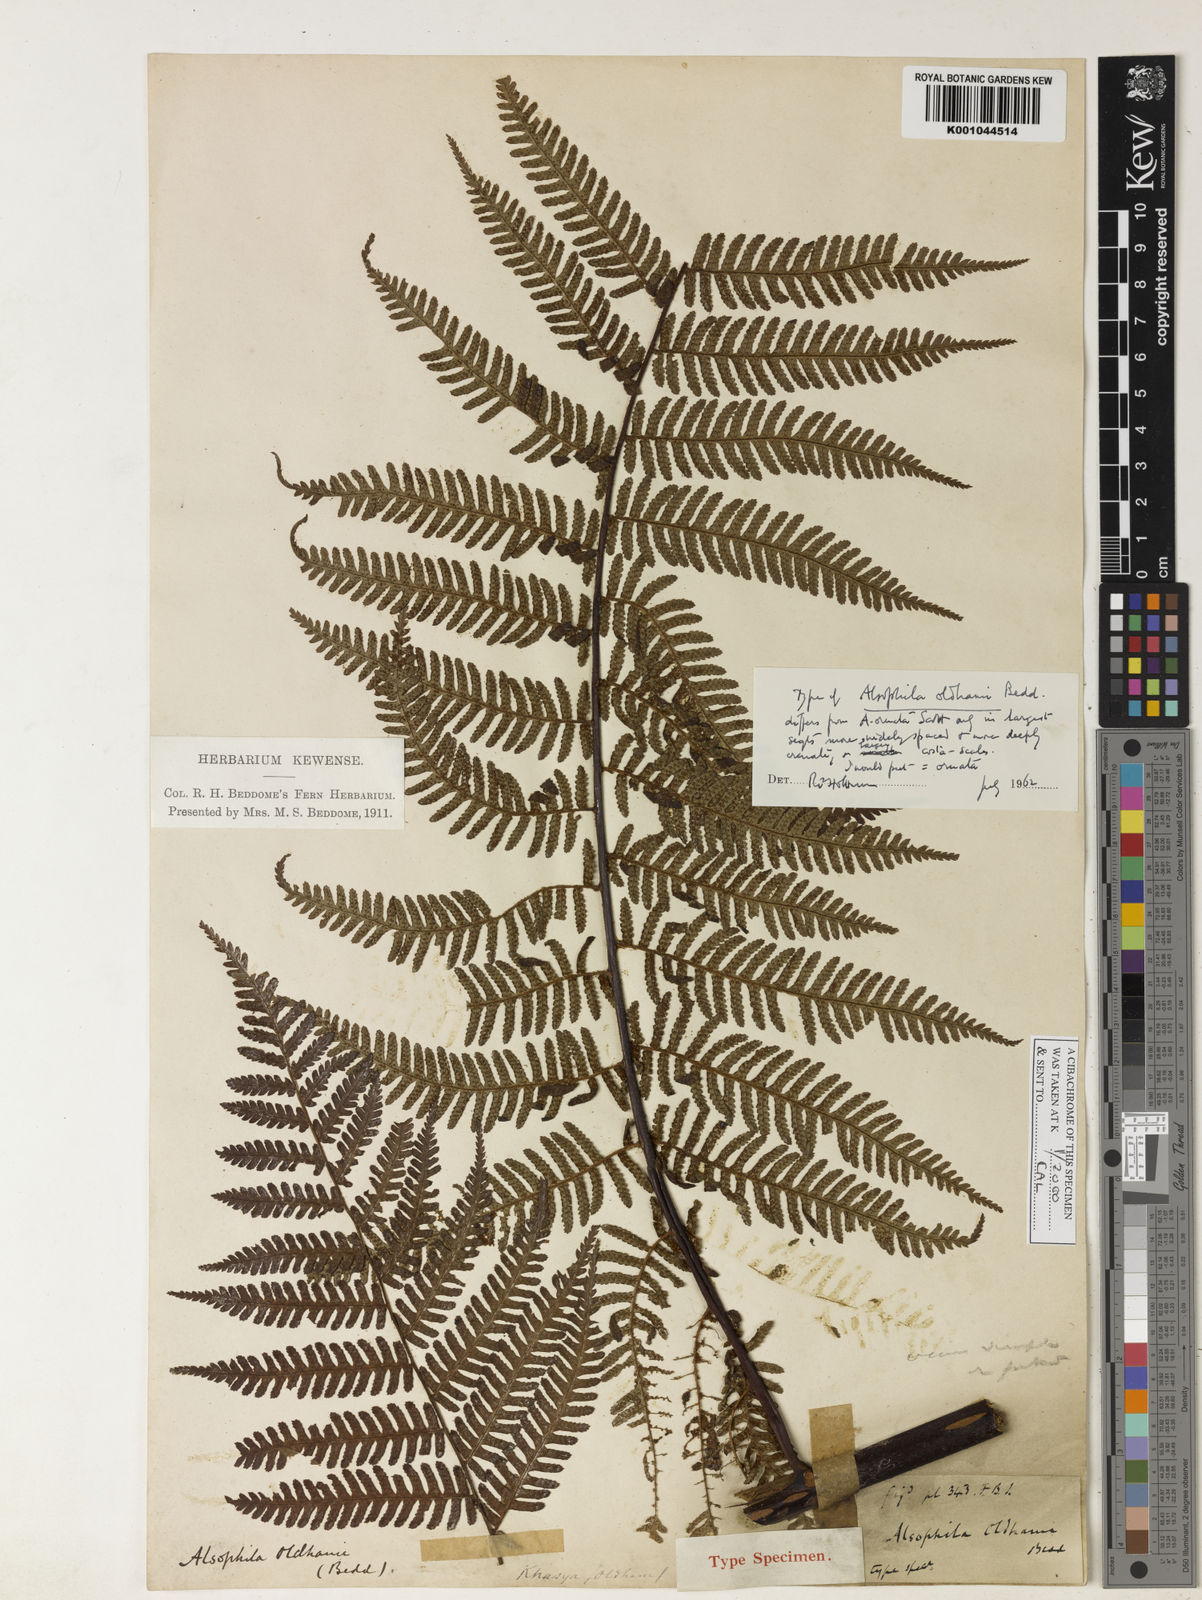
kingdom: Plantae
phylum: Tracheophyta
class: Polypodiopsida
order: Cyatheales
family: Cyatheaceae
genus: Gymnosphaera
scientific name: Gymnosphaera khasyana
